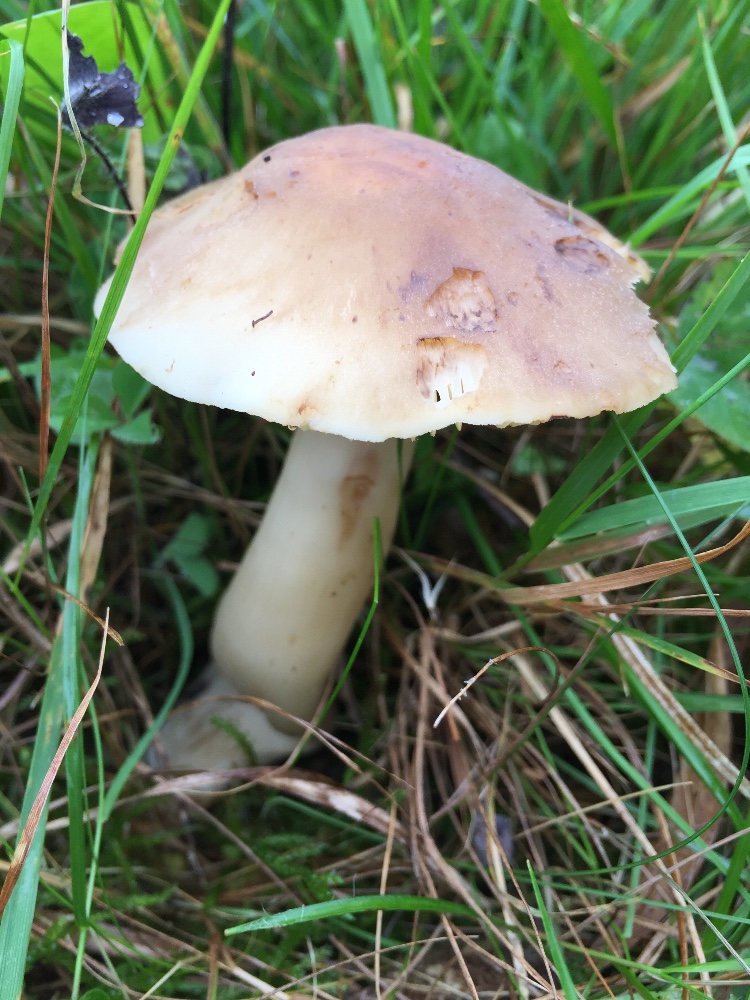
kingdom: Fungi
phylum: Basidiomycota
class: Agaricomycetes
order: Agaricales
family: Hygrophoraceae
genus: Hygrocybe
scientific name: Hygrocybe ingrata
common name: Jensens vokshat
